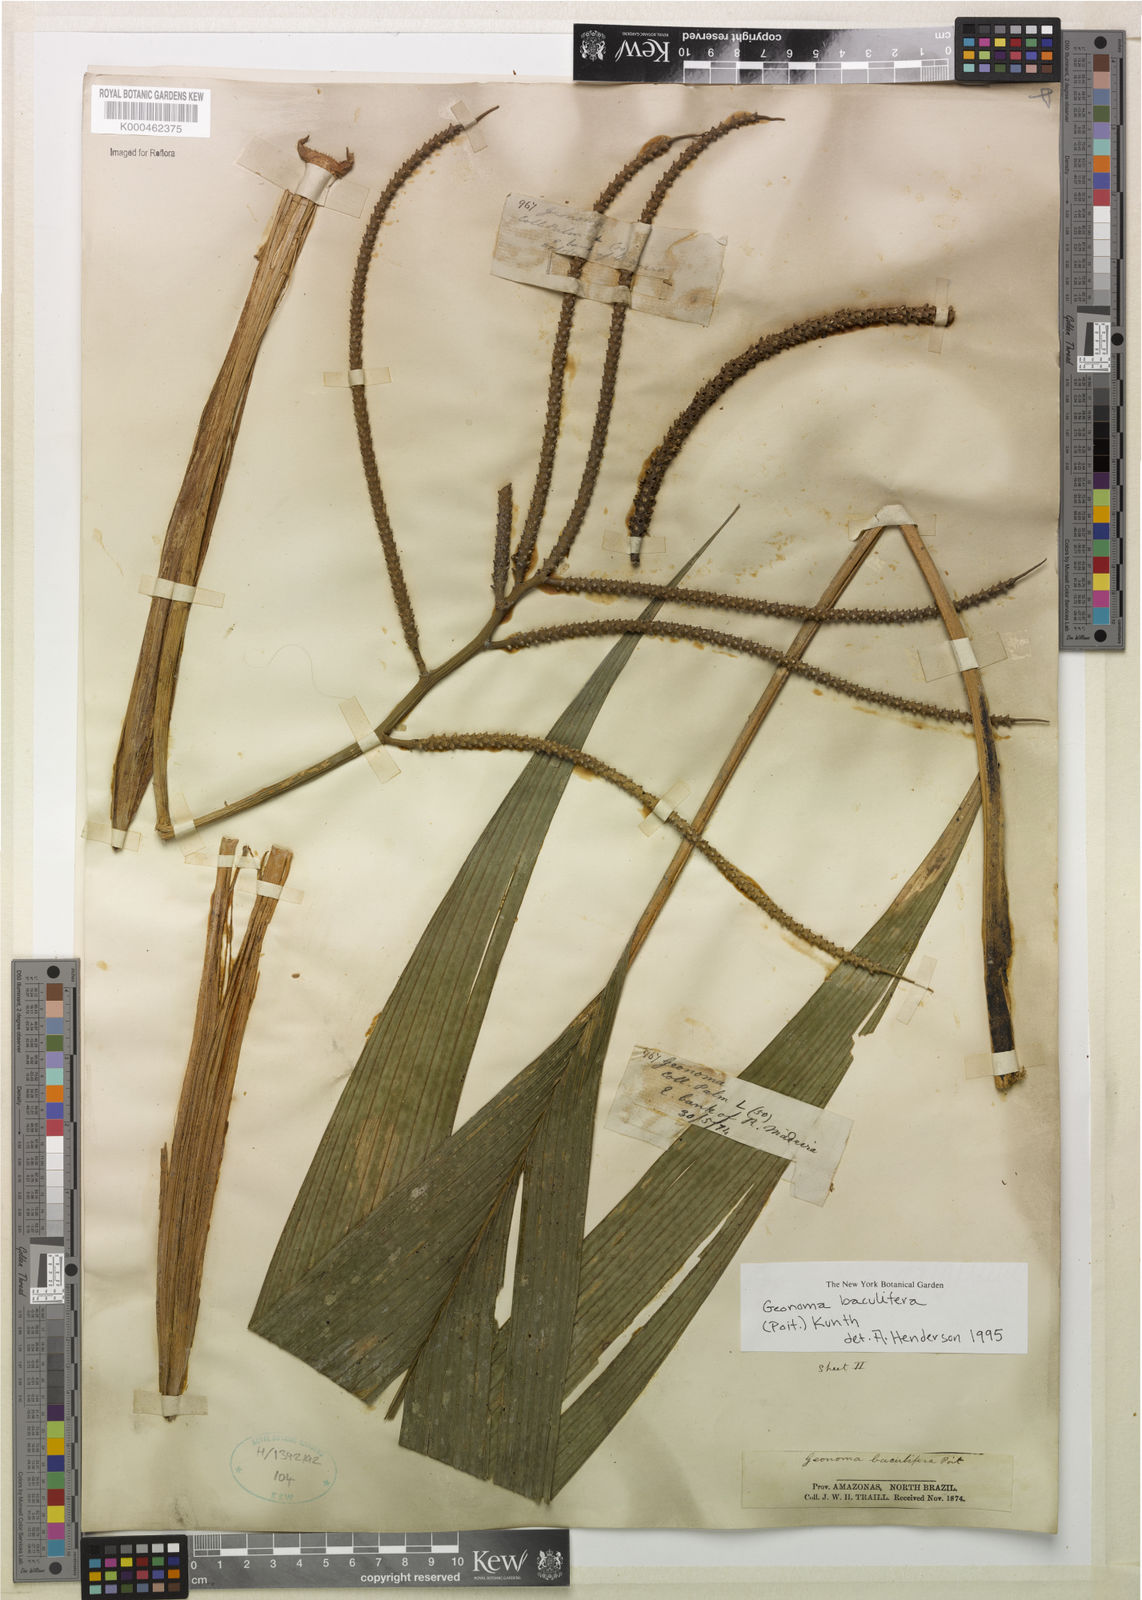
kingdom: Plantae
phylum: Tracheophyta
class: Liliopsida
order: Arecales
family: Arecaceae
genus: Geonoma
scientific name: Geonoma baculifera
